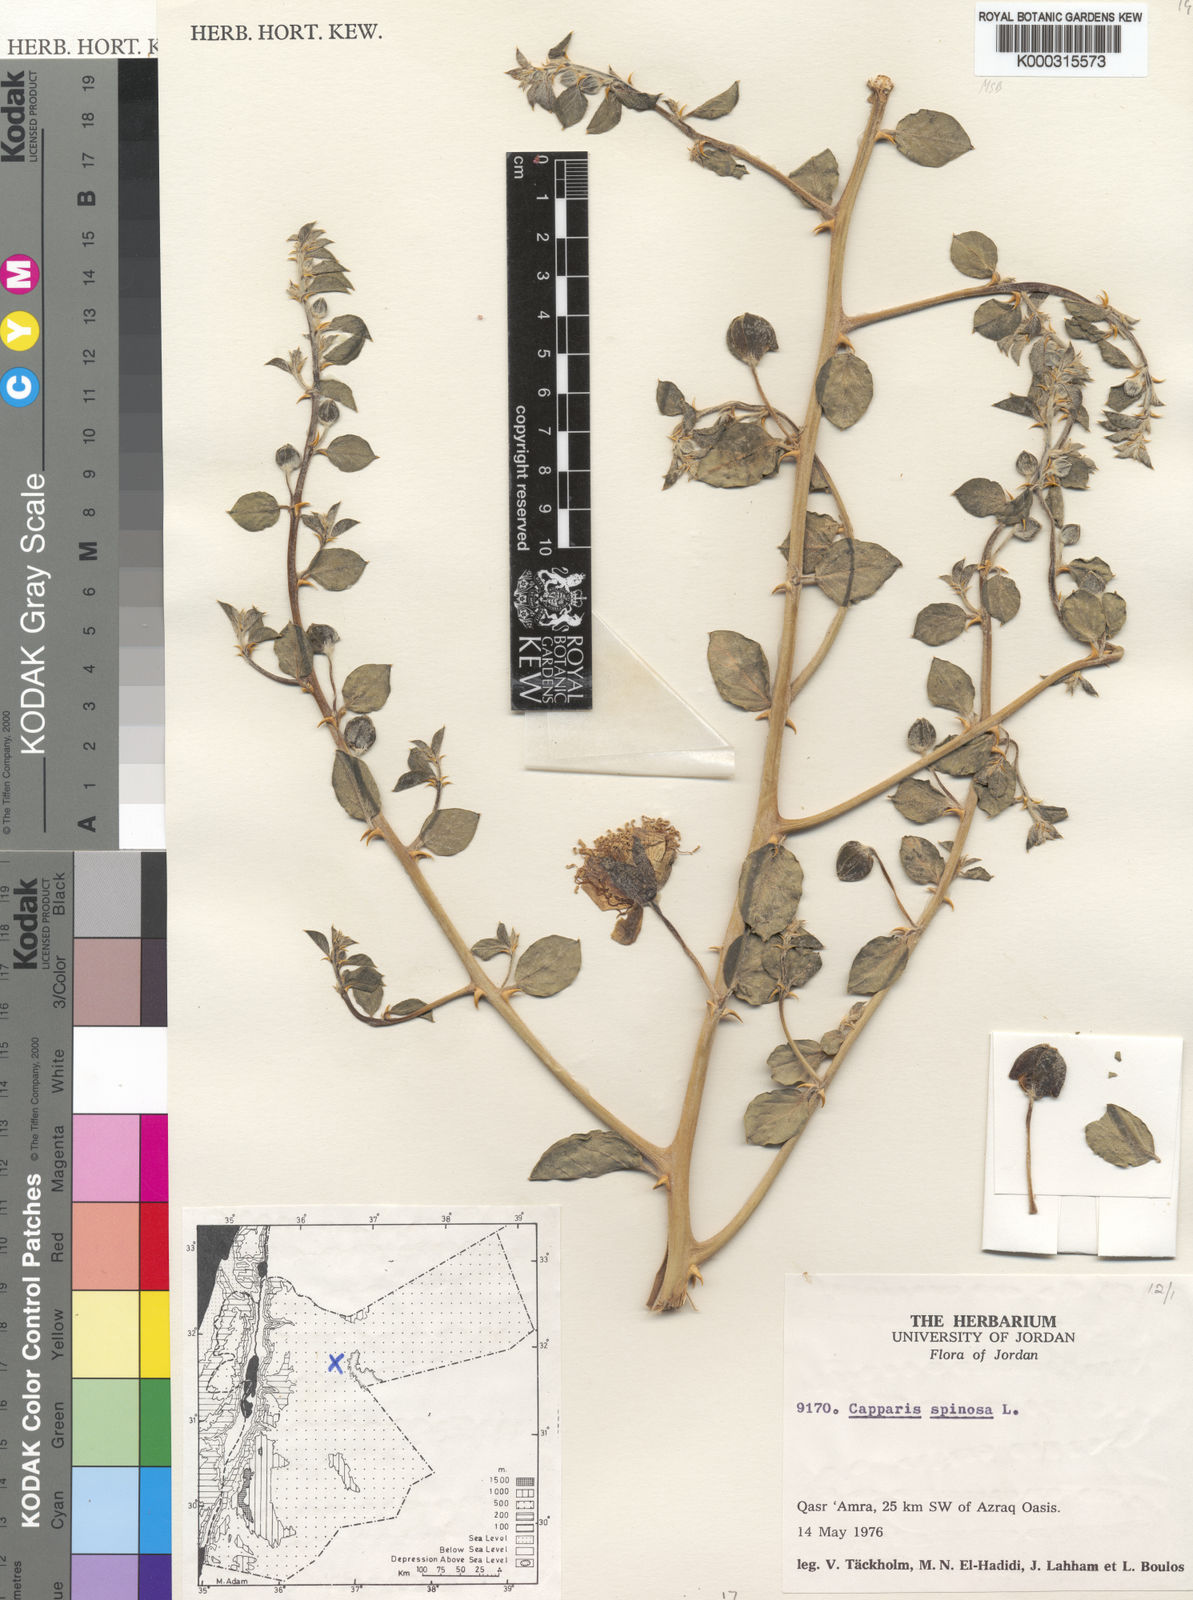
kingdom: Plantae
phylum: Tracheophyta
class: Magnoliopsida
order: Brassicales
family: Capparaceae
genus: Capparis
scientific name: Capparis spinosa
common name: Caper
